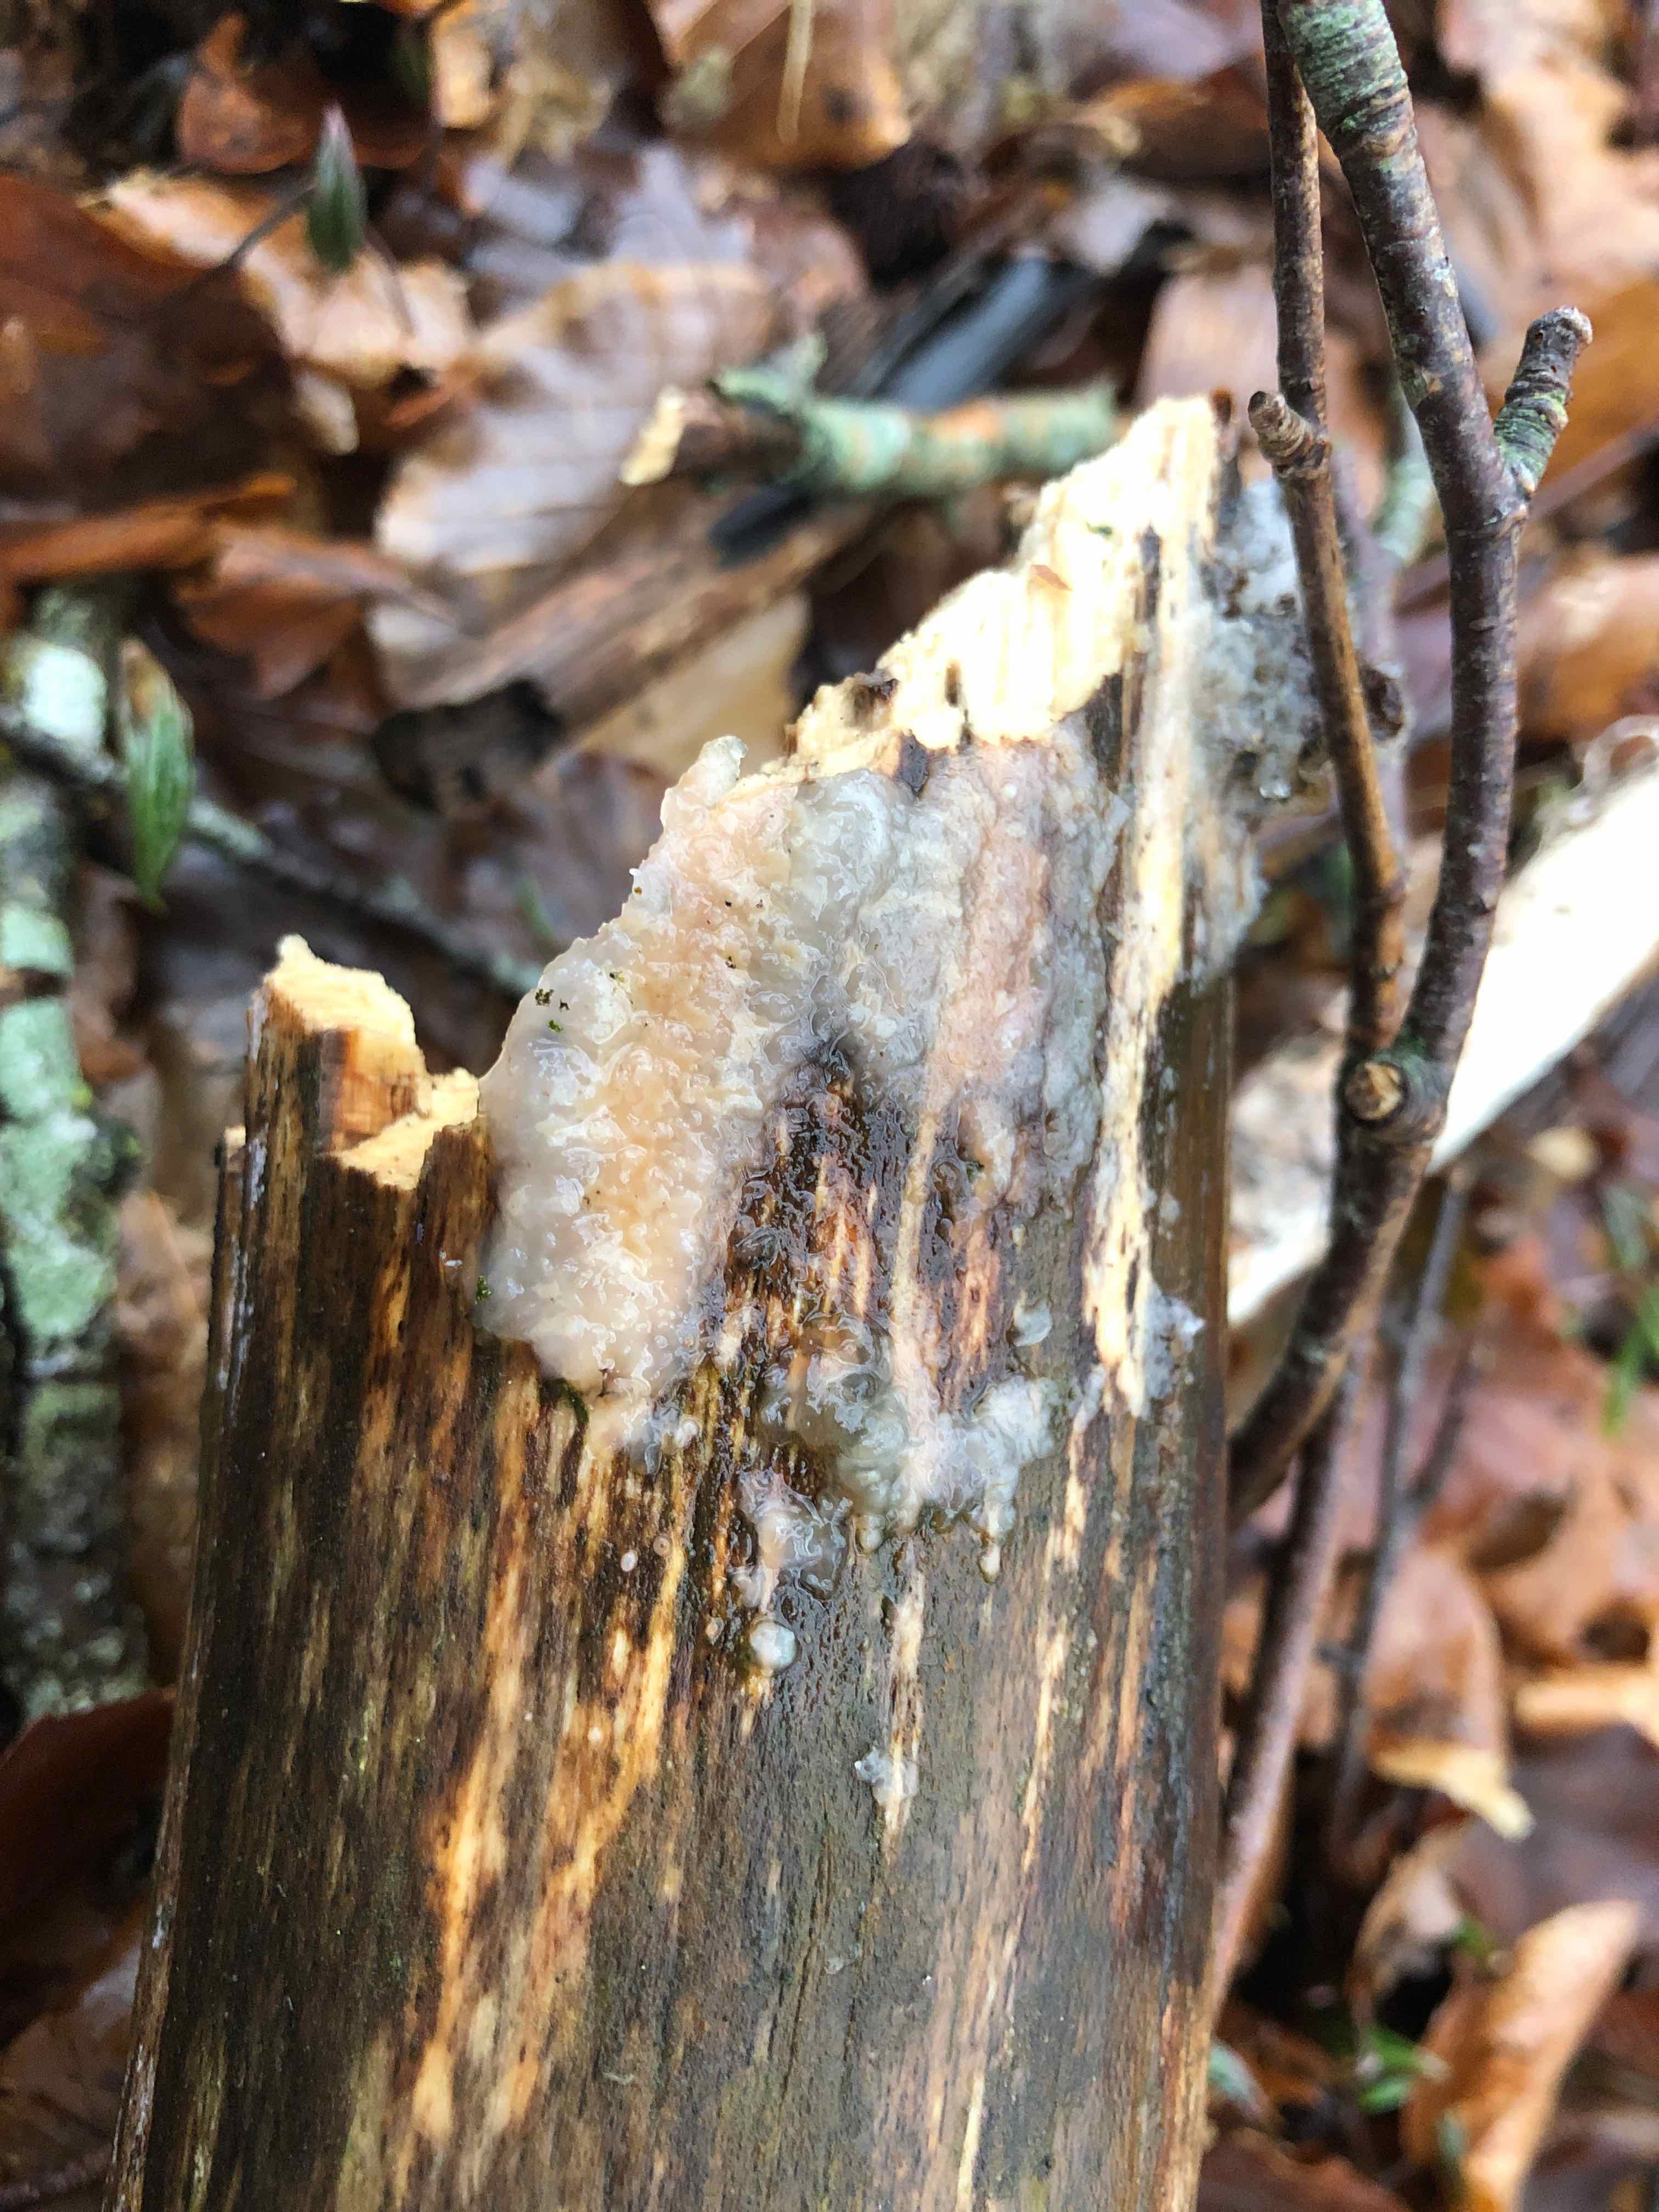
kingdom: Fungi
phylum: Basidiomycota
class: Agaricomycetes
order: Auriculariales
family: Auriculariaceae
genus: Exidia
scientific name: Exidia thuretiana
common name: hvidlig bævretop
